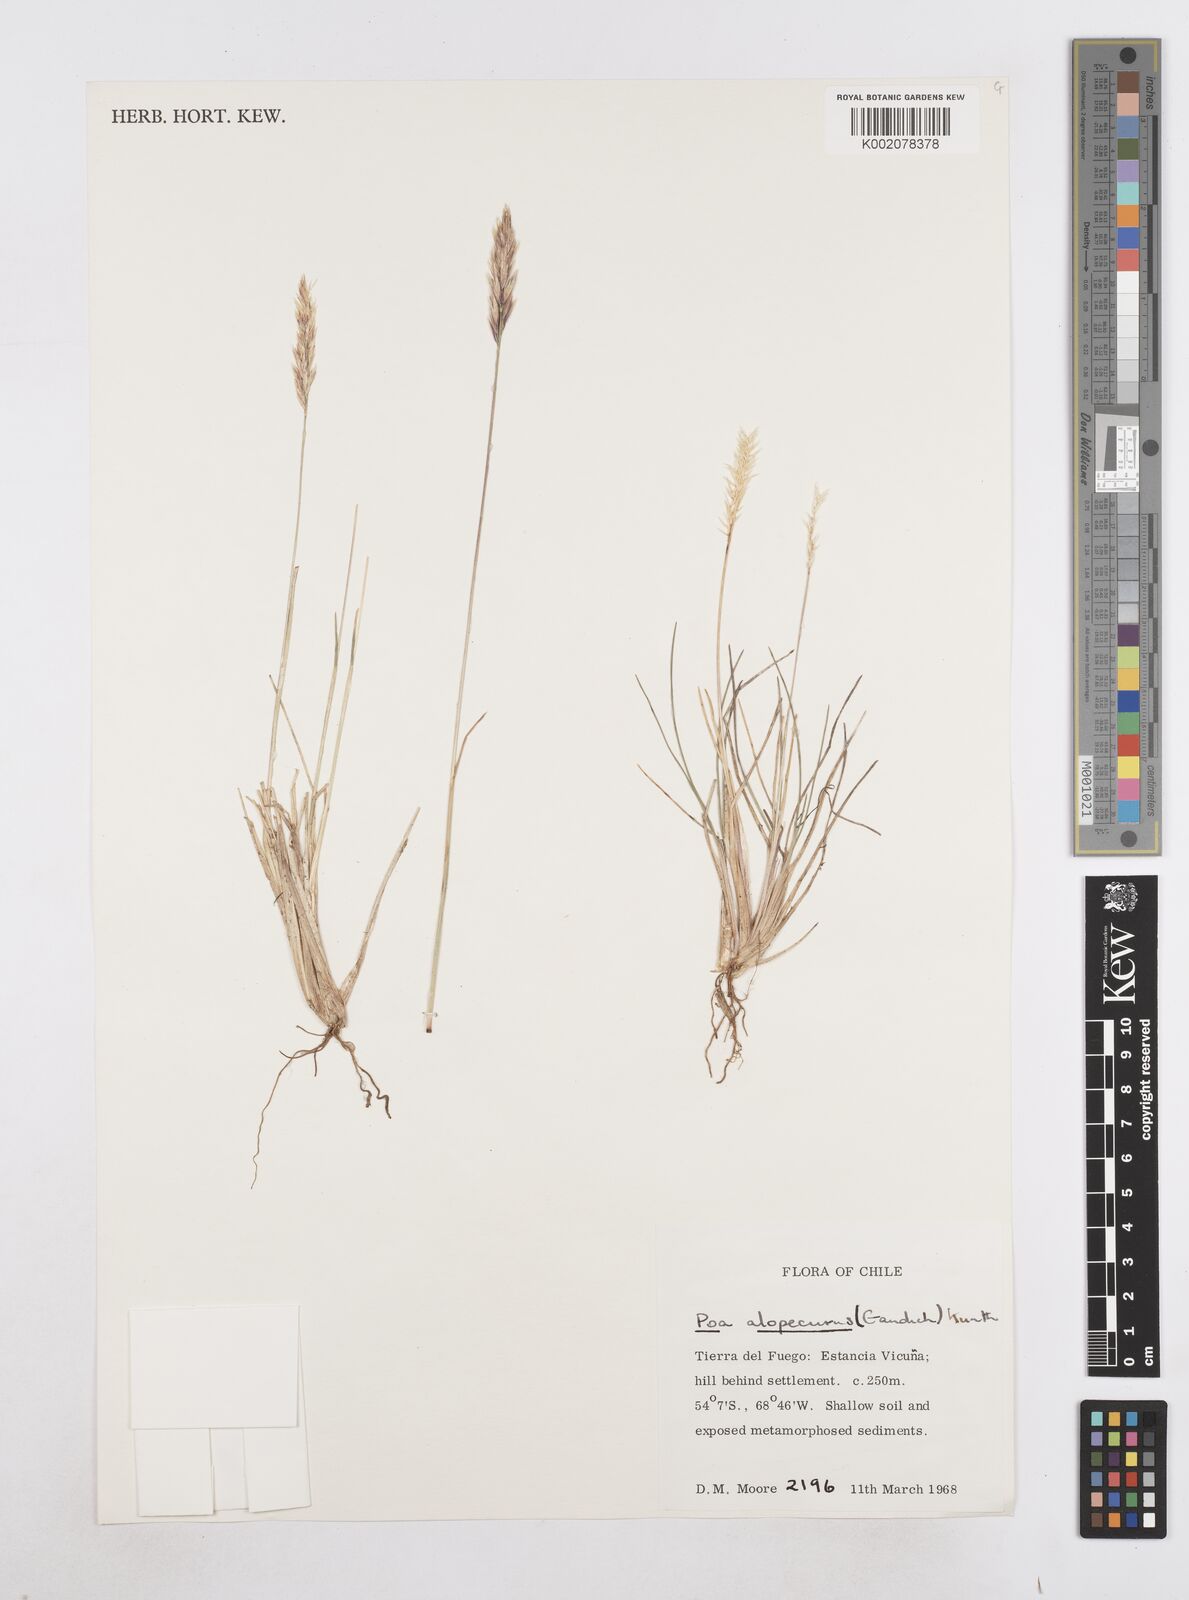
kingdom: Plantae
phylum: Tracheophyta
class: Liliopsida
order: Poales
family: Poaceae
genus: Poa
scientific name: Poa alopecurus
